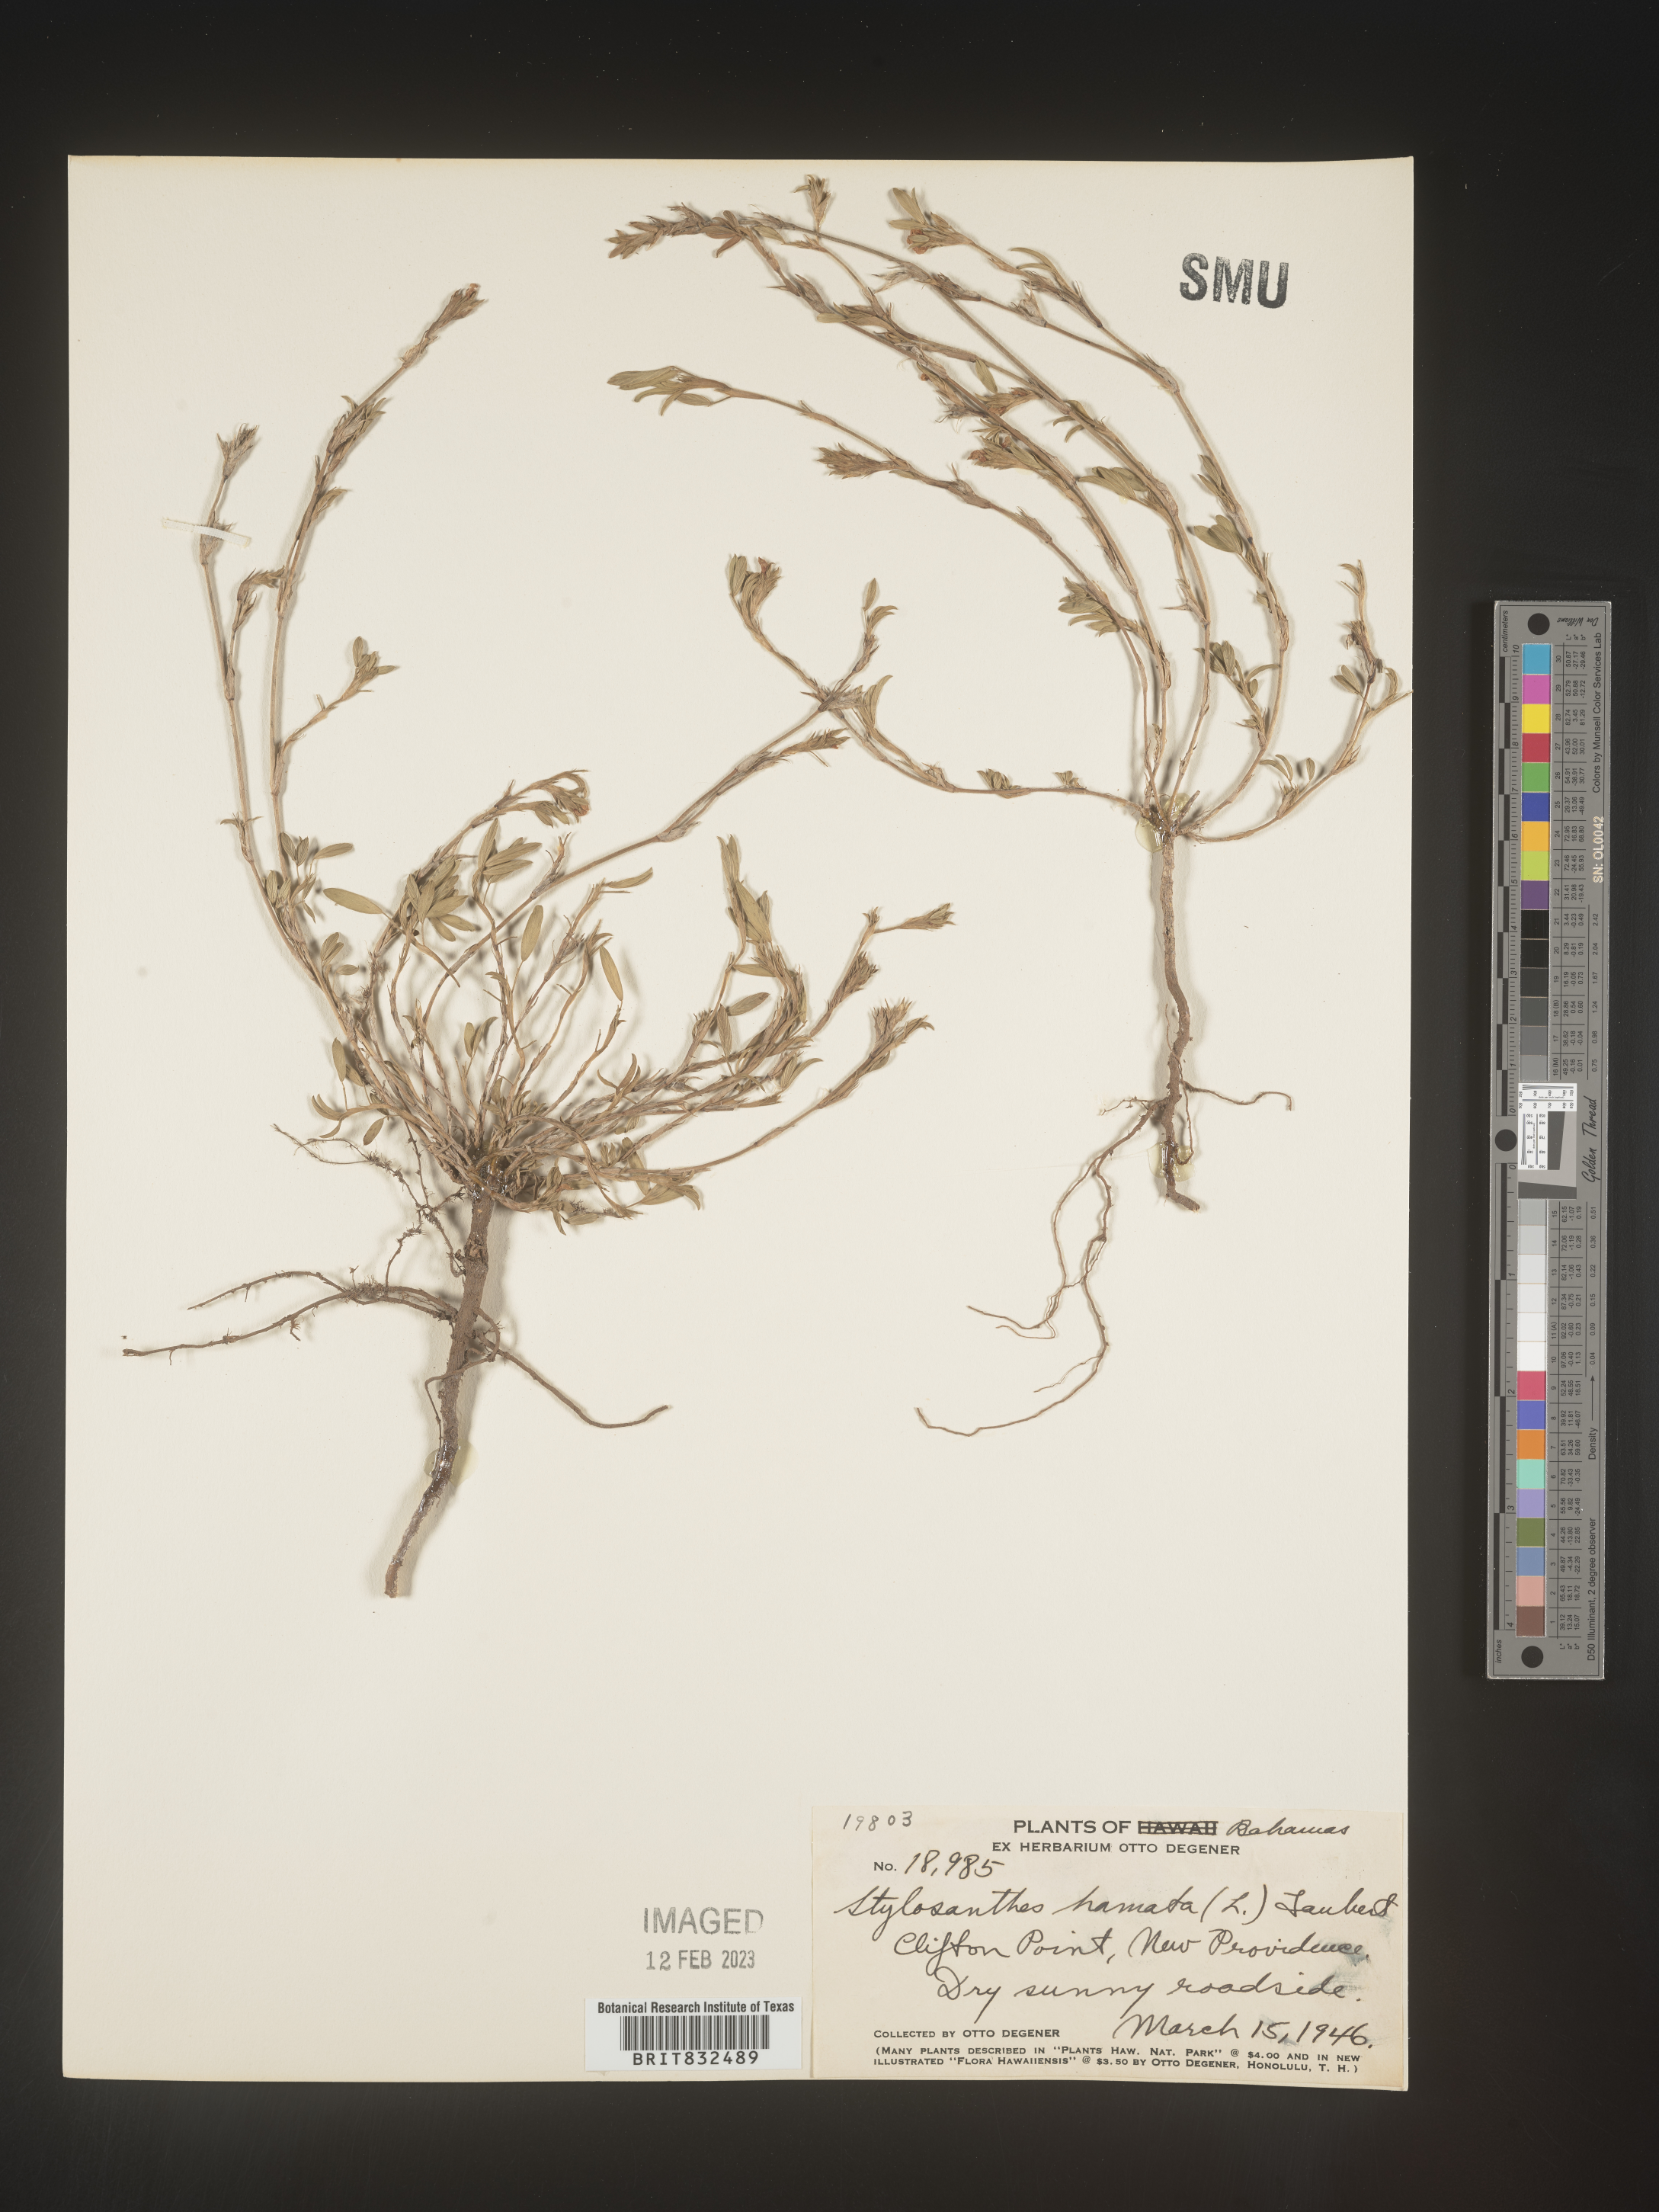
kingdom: Plantae
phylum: Tracheophyta
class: Magnoliopsida
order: Fabales
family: Fabaceae
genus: Stylosanthes
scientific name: Stylosanthes
